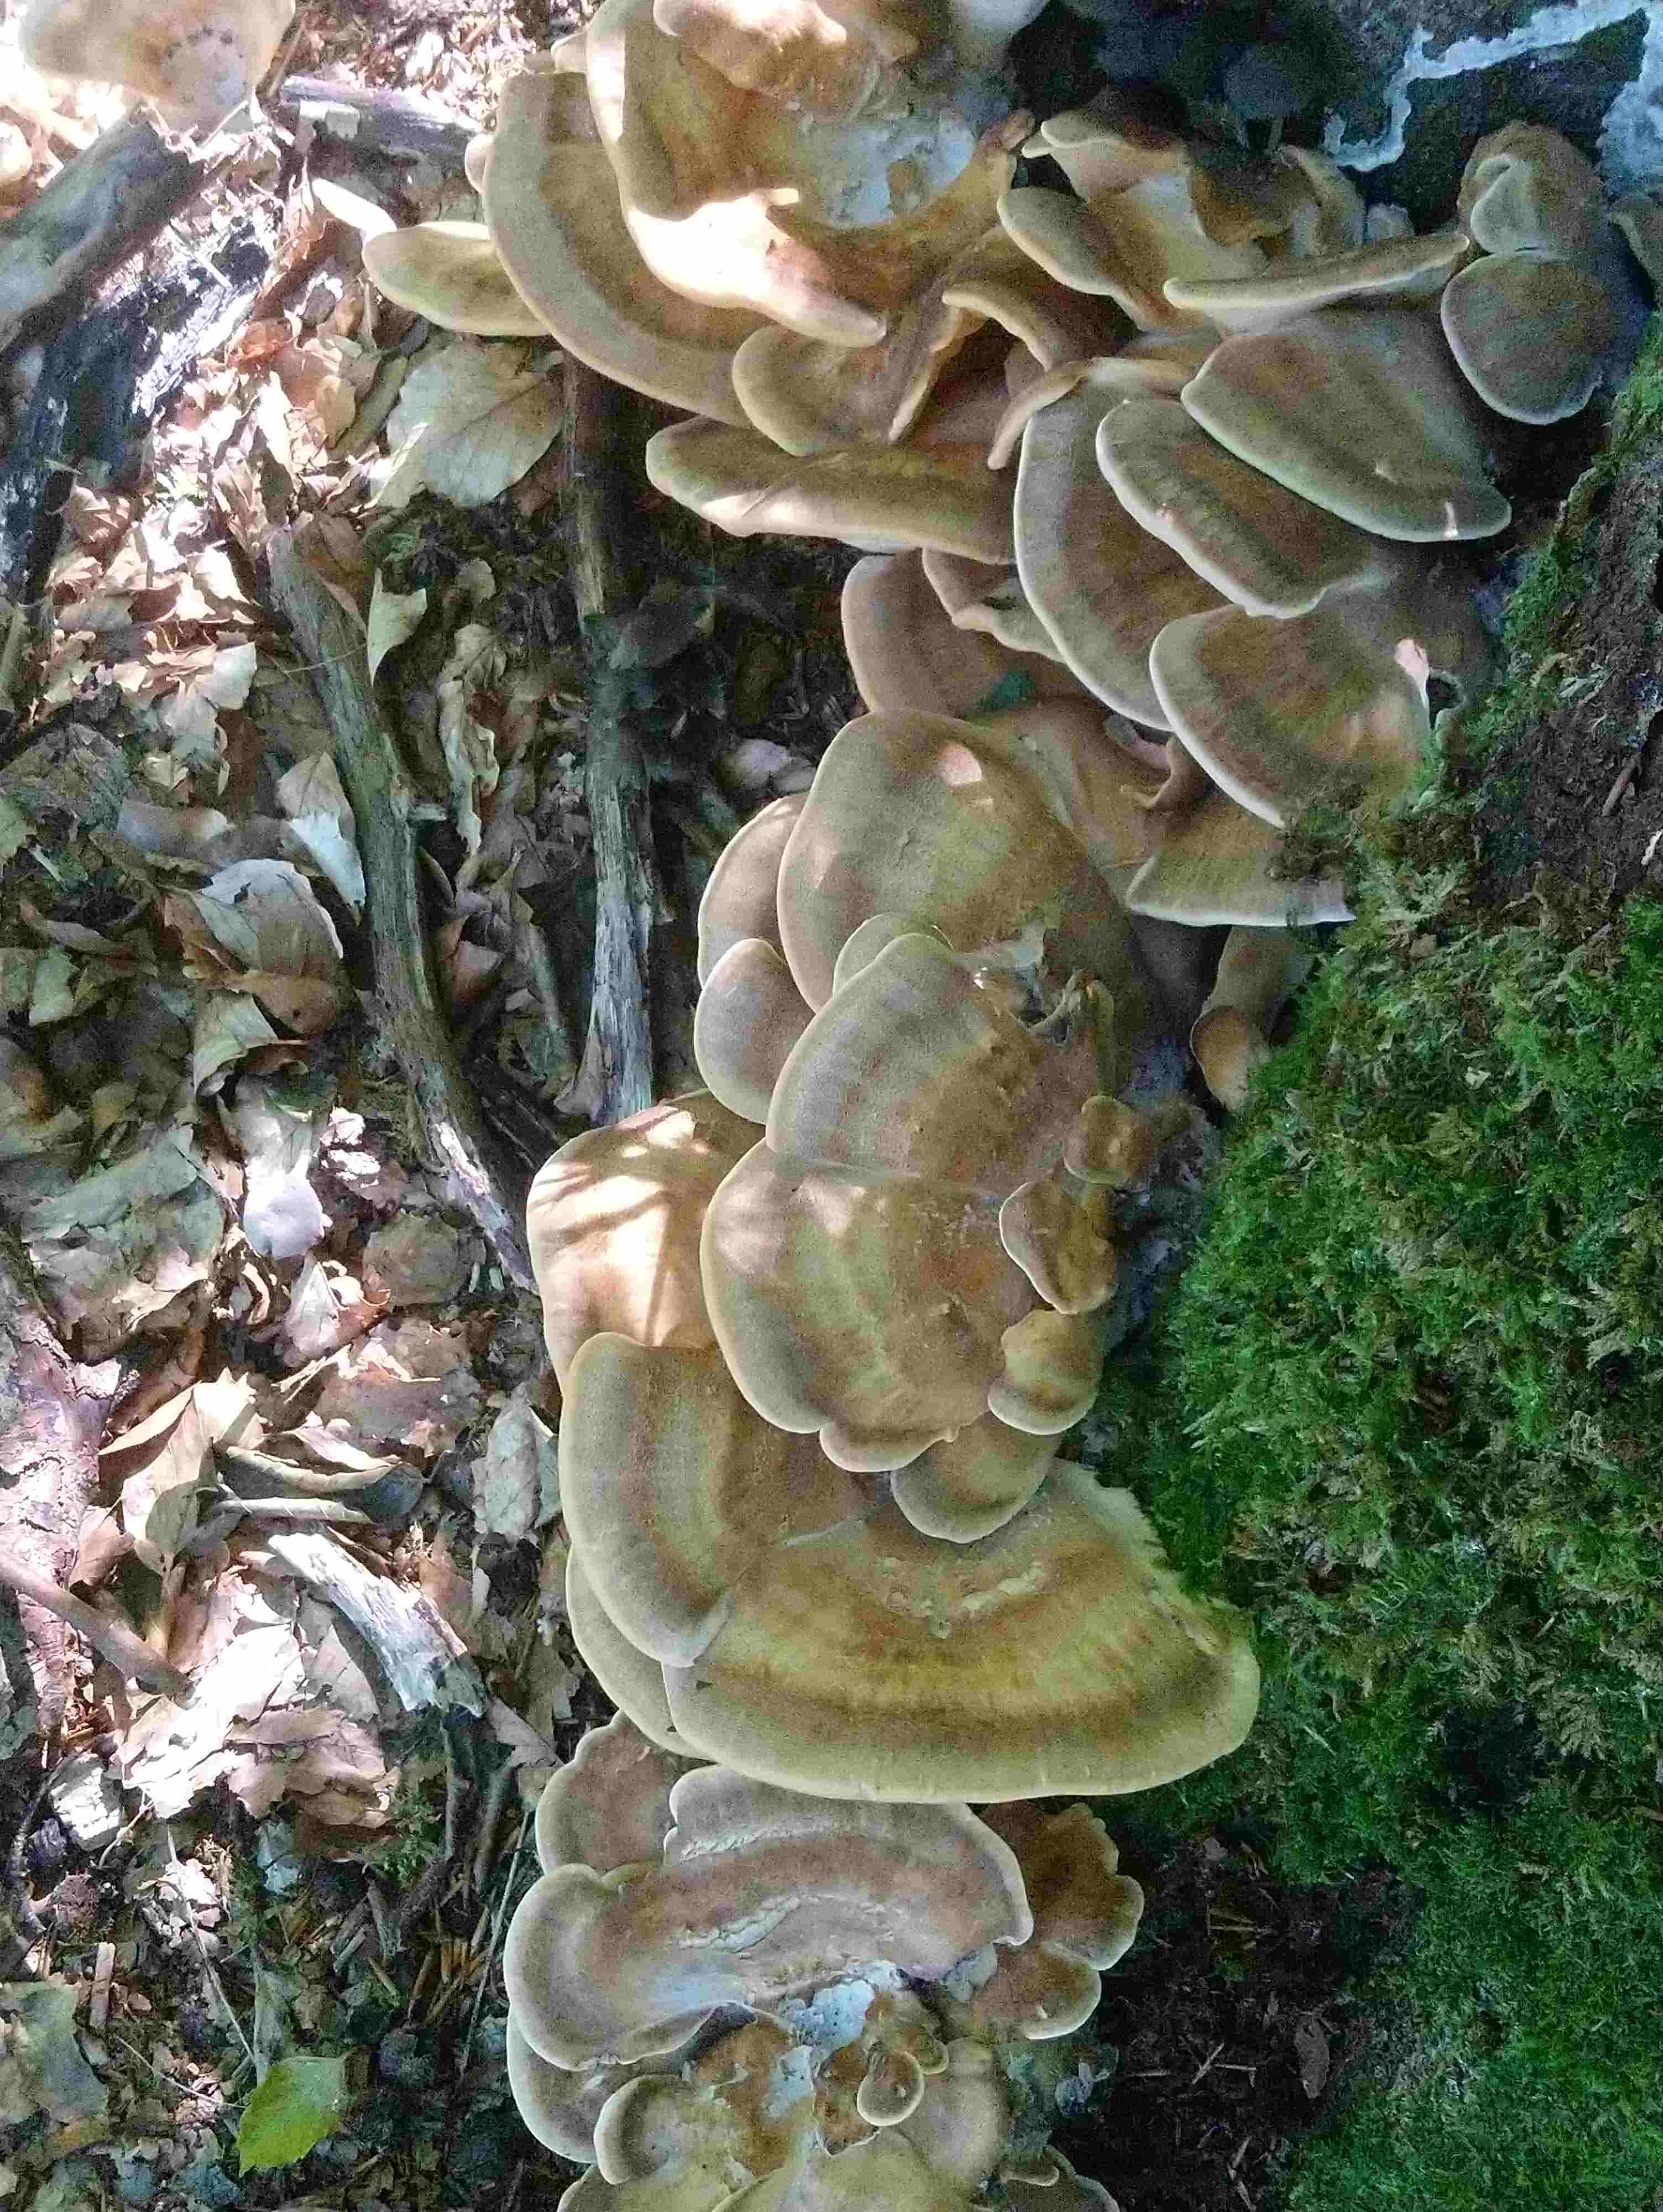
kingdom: Fungi
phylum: Basidiomycota
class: Agaricomycetes
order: Polyporales
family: Meripilaceae
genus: Meripilus
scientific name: Meripilus giganteus
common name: kæmpeporesvamp
